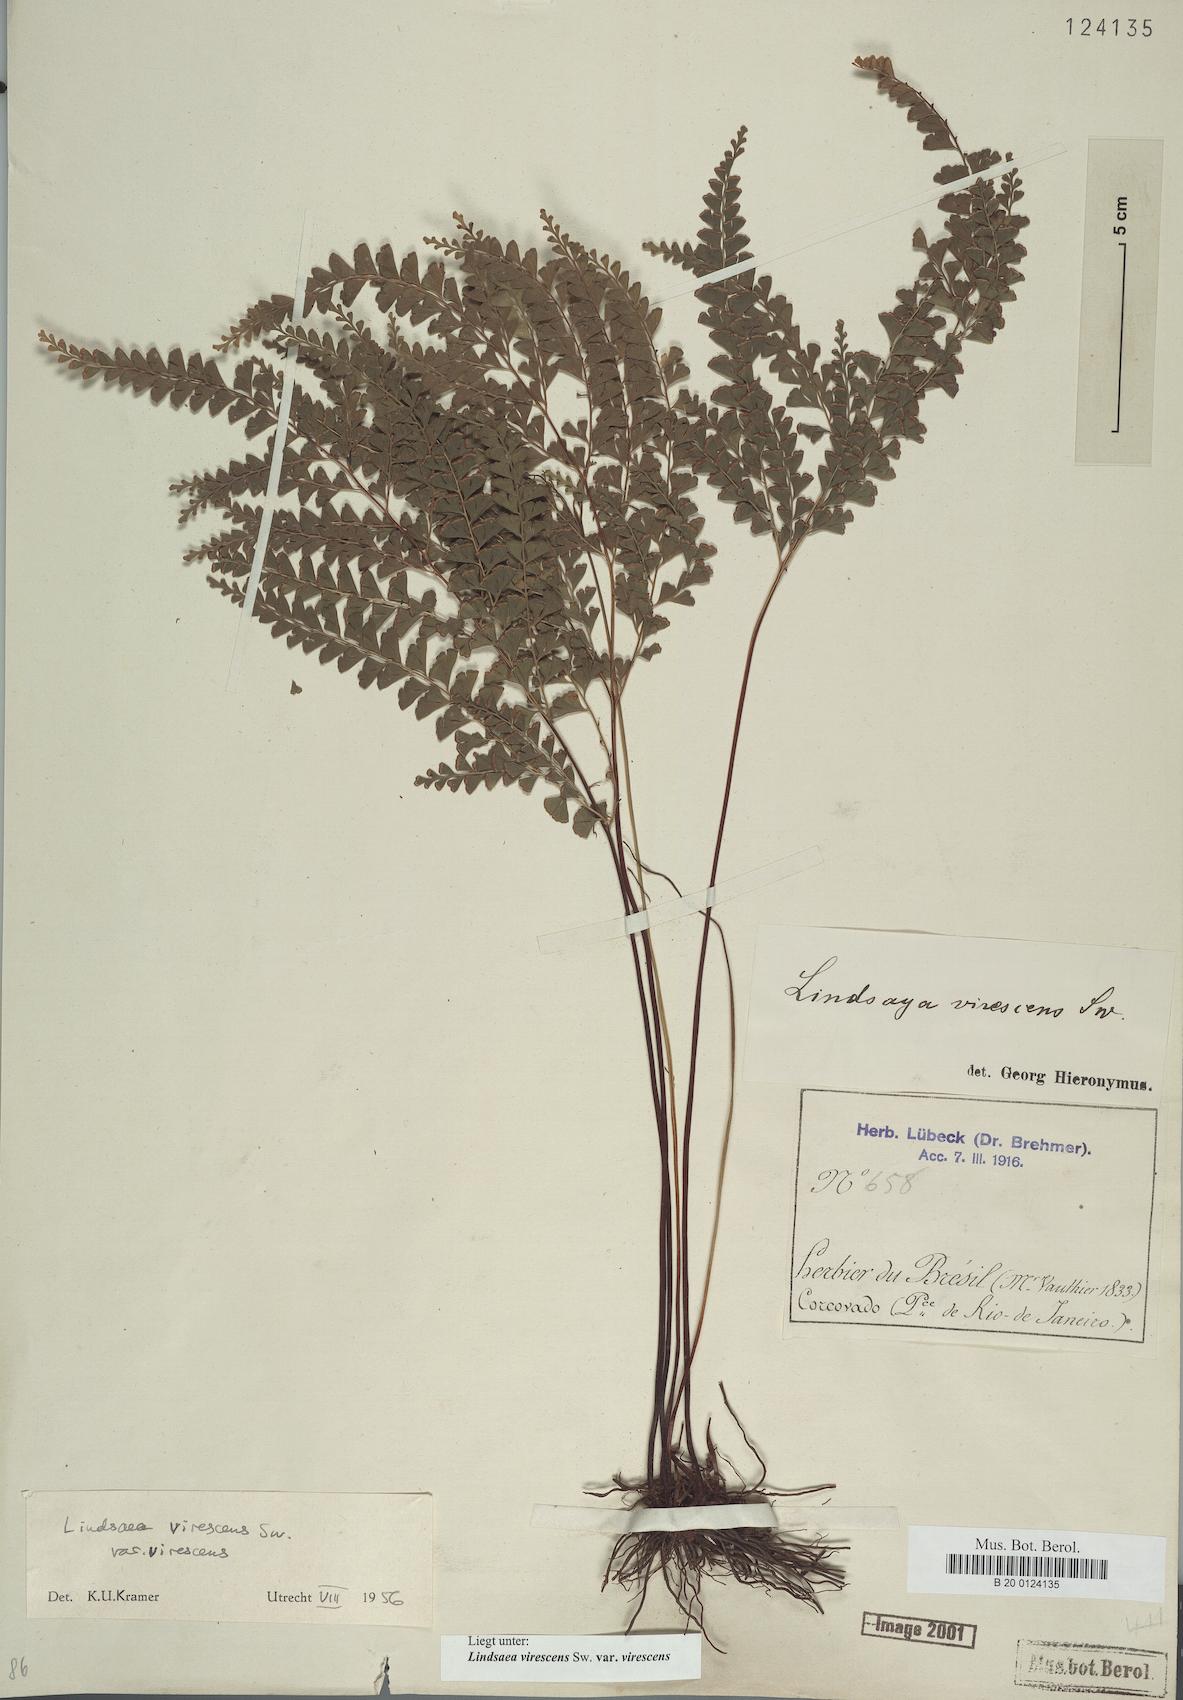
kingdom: Plantae
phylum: Tracheophyta
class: Polypodiopsida
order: Polypodiales
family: Lindsaeaceae
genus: Lindsaea
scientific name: Lindsaea virescens
